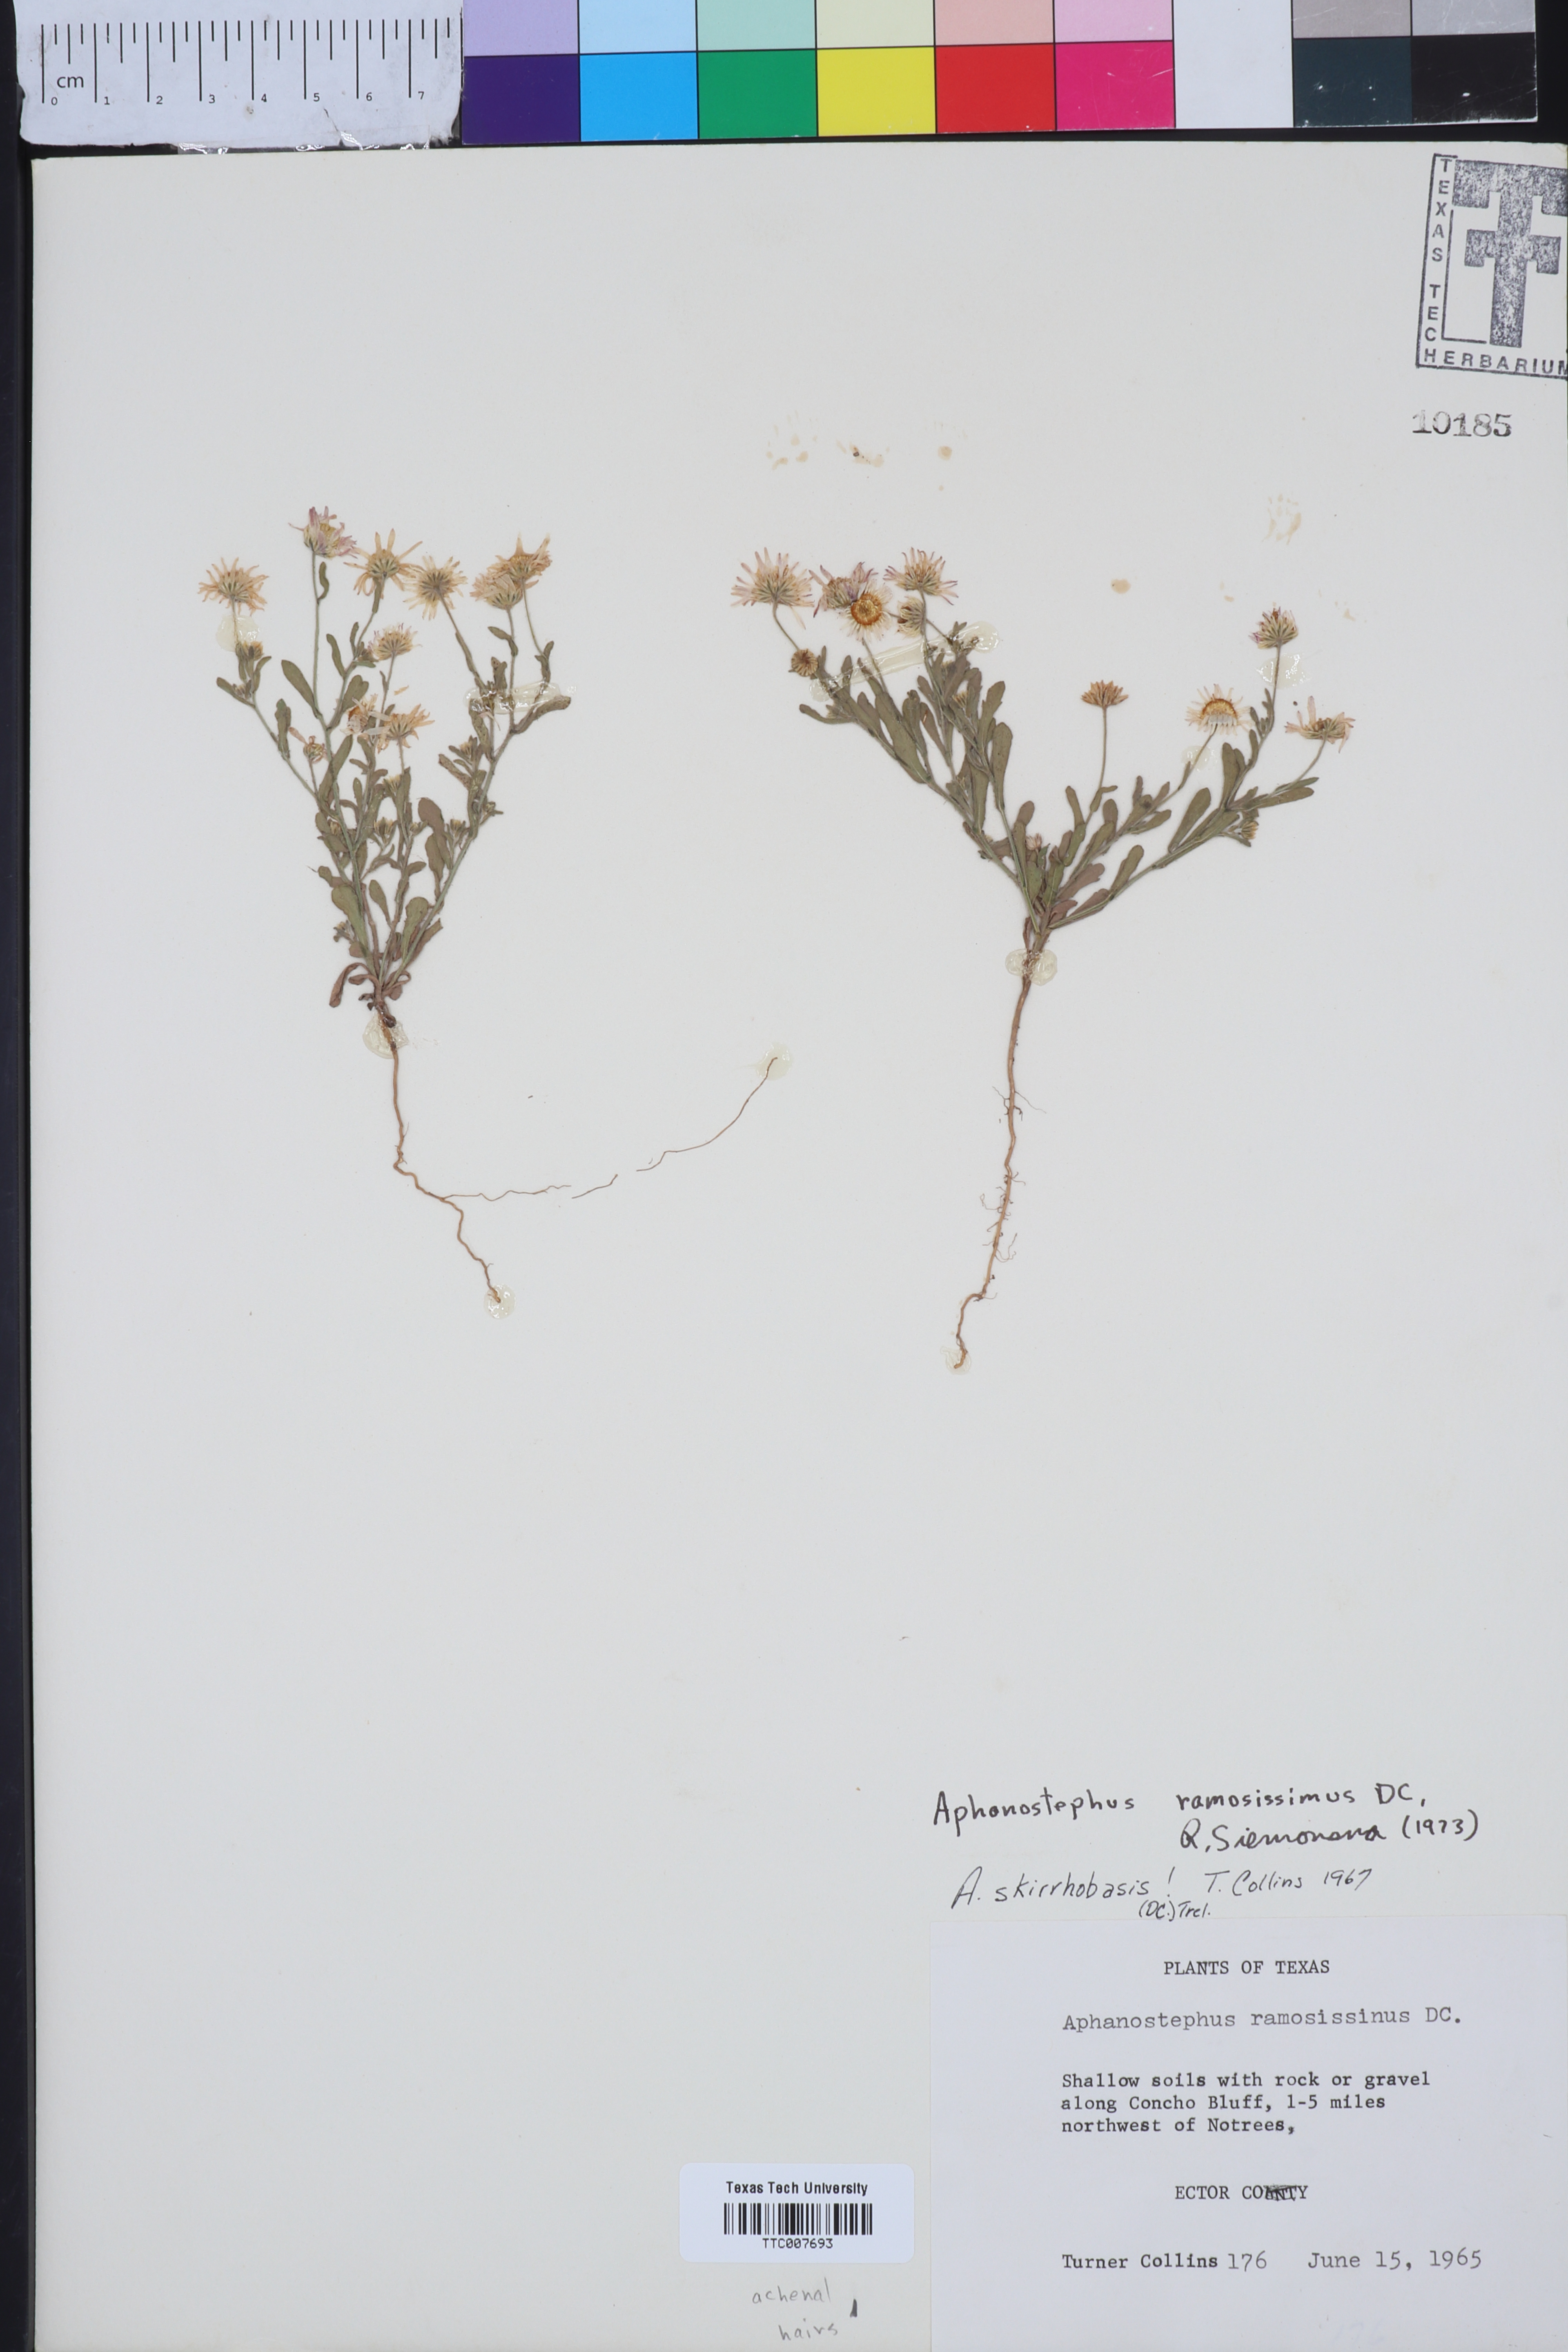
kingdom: Plantae
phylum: Tracheophyta
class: Magnoliopsida
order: Asterales
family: Asteraceae
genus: Aphanostephus
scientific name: Aphanostephus ramosissimus
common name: Plains lazy daisy
